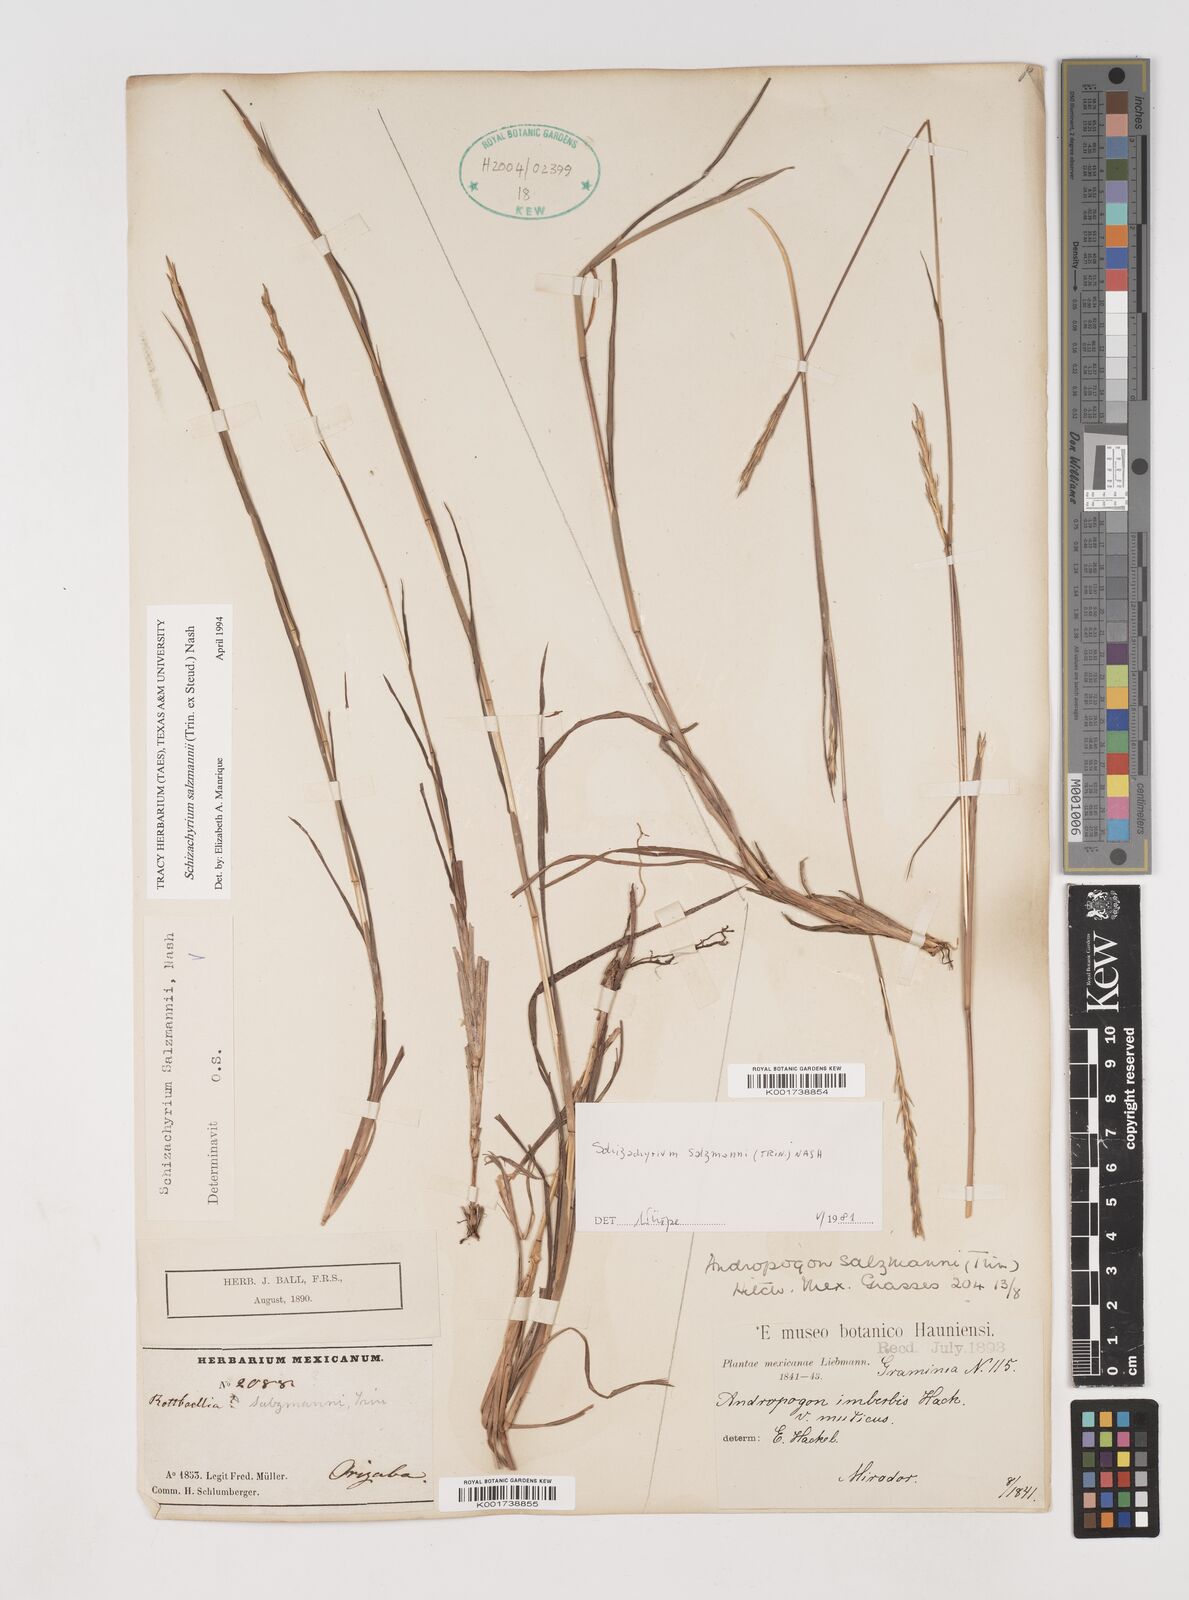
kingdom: Plantae
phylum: Tracheophyta
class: Liliopsida
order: Poales
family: Poaceae
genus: Andropogon
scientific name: Andropogon salzmannii
